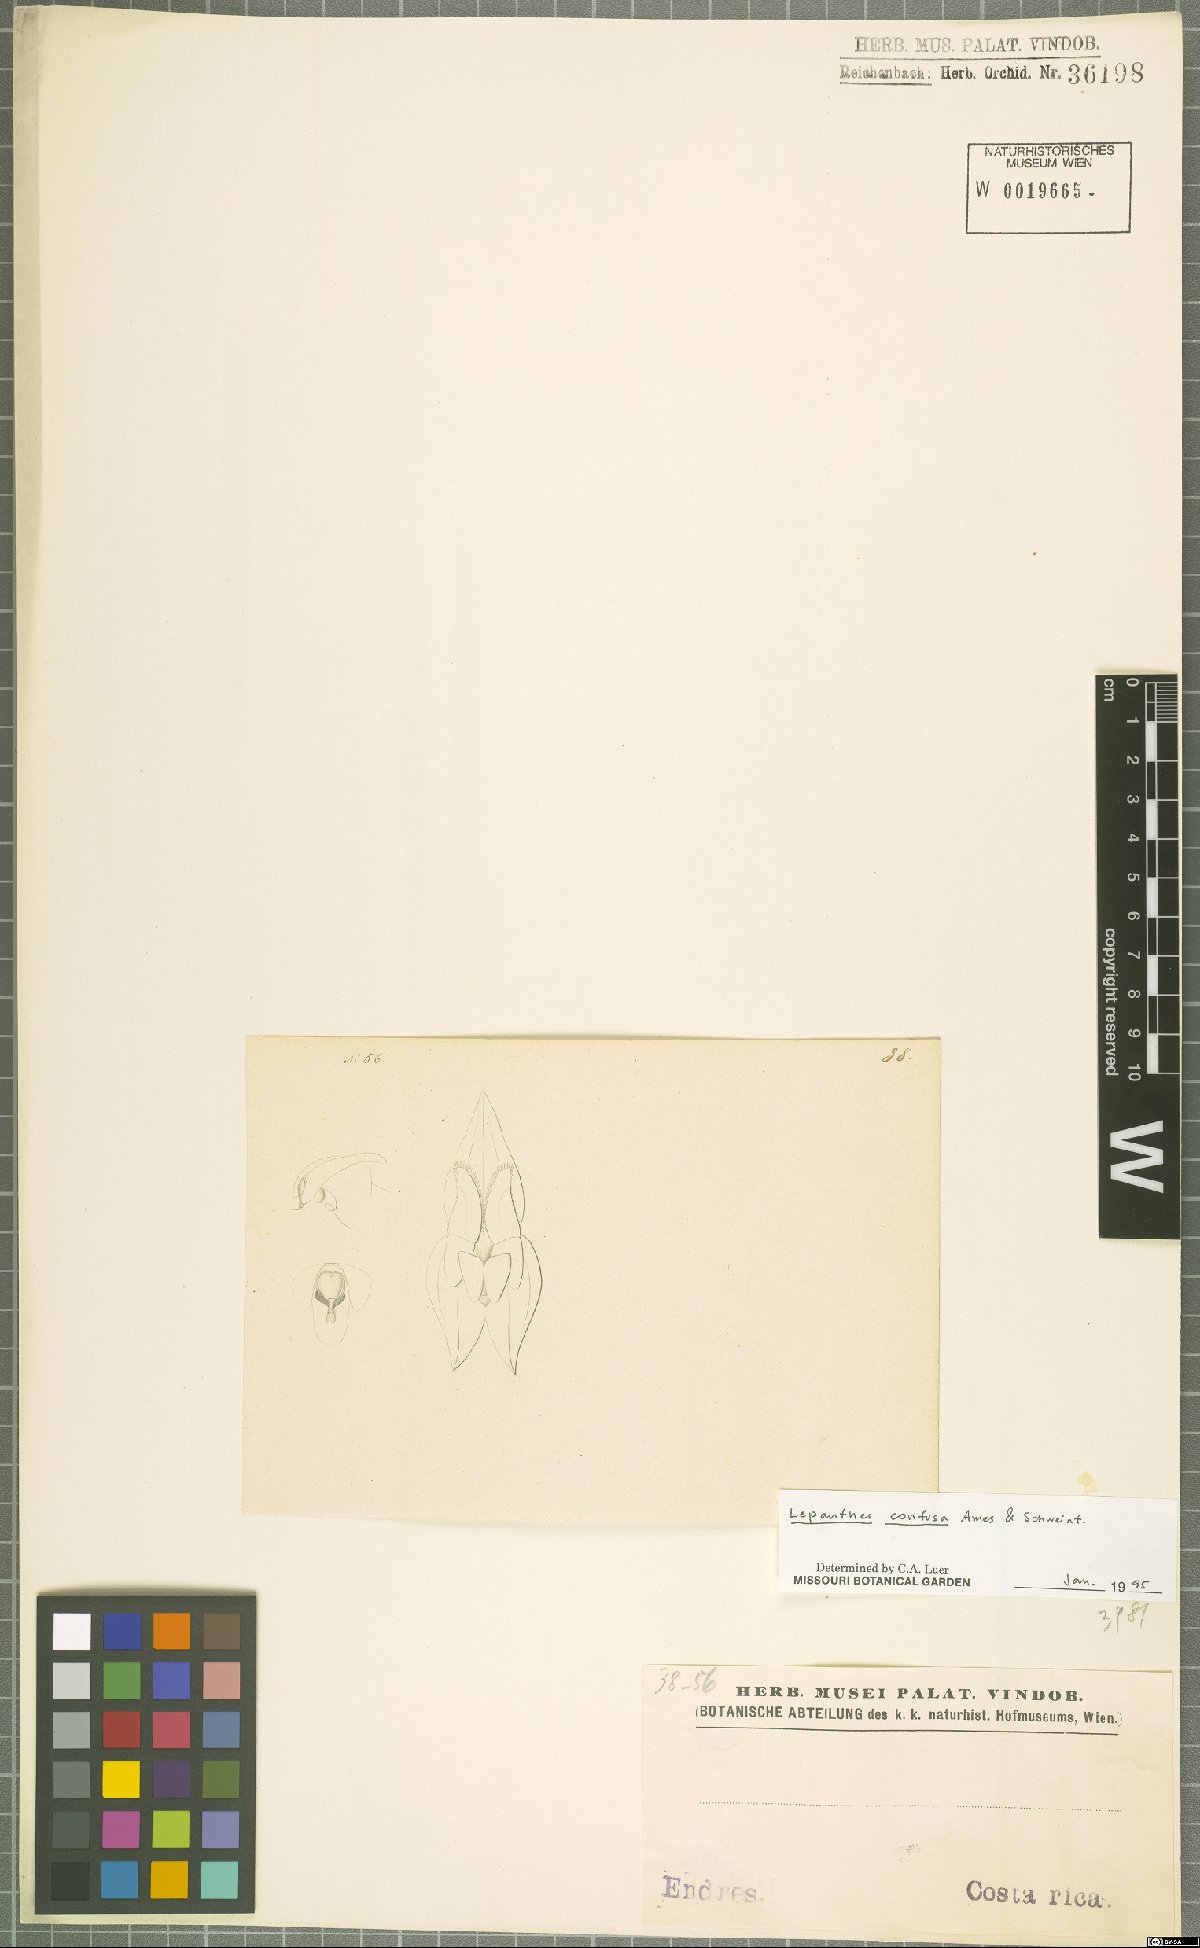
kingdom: Plantae
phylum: Tracheophyta
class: Liliopsida
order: Asparagales
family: Orchidaceae
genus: Lepanthes
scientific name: Lepanthes confusa
